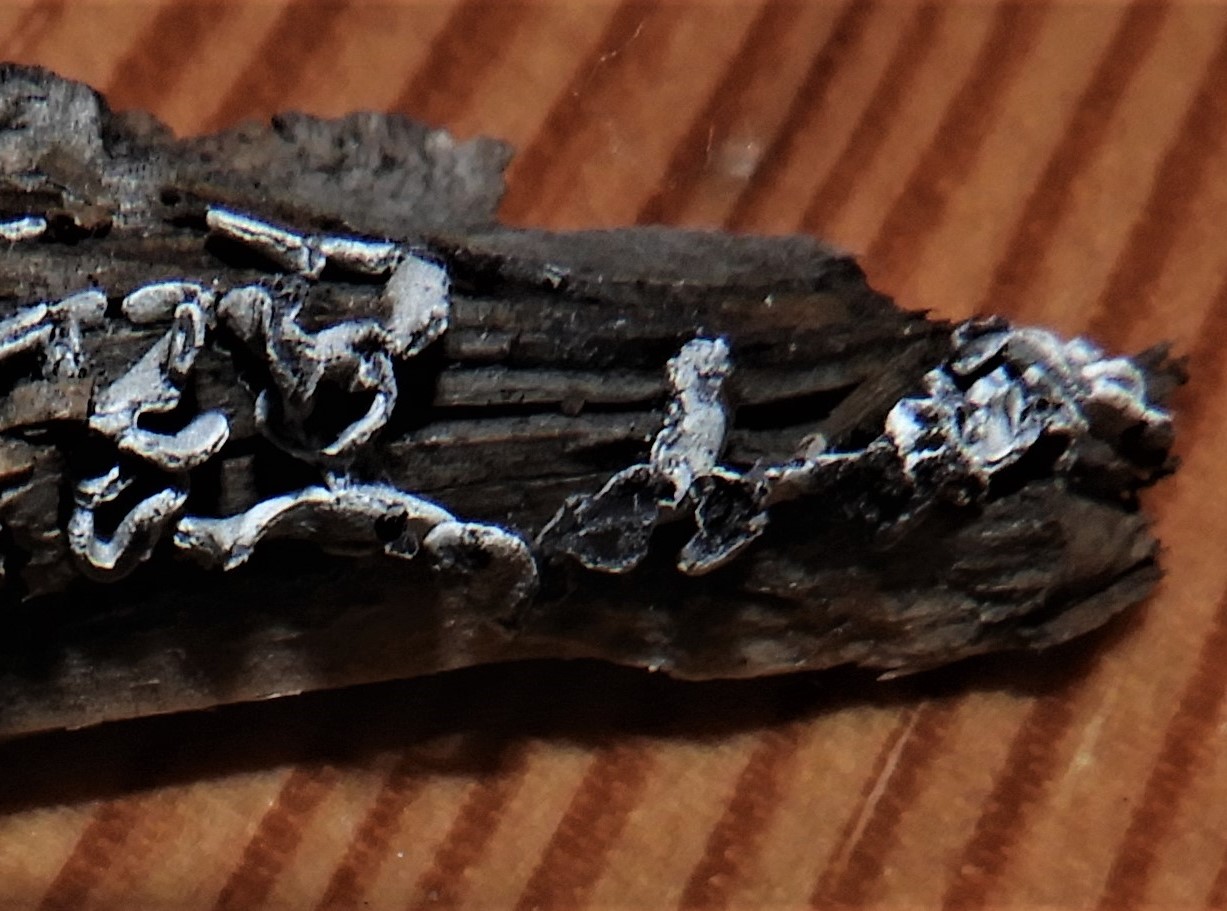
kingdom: Protozoa
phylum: Mycetozoa
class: Myxomycetes
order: Physarales
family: Physaraceae
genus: Physarum
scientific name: Physarum bivalve
